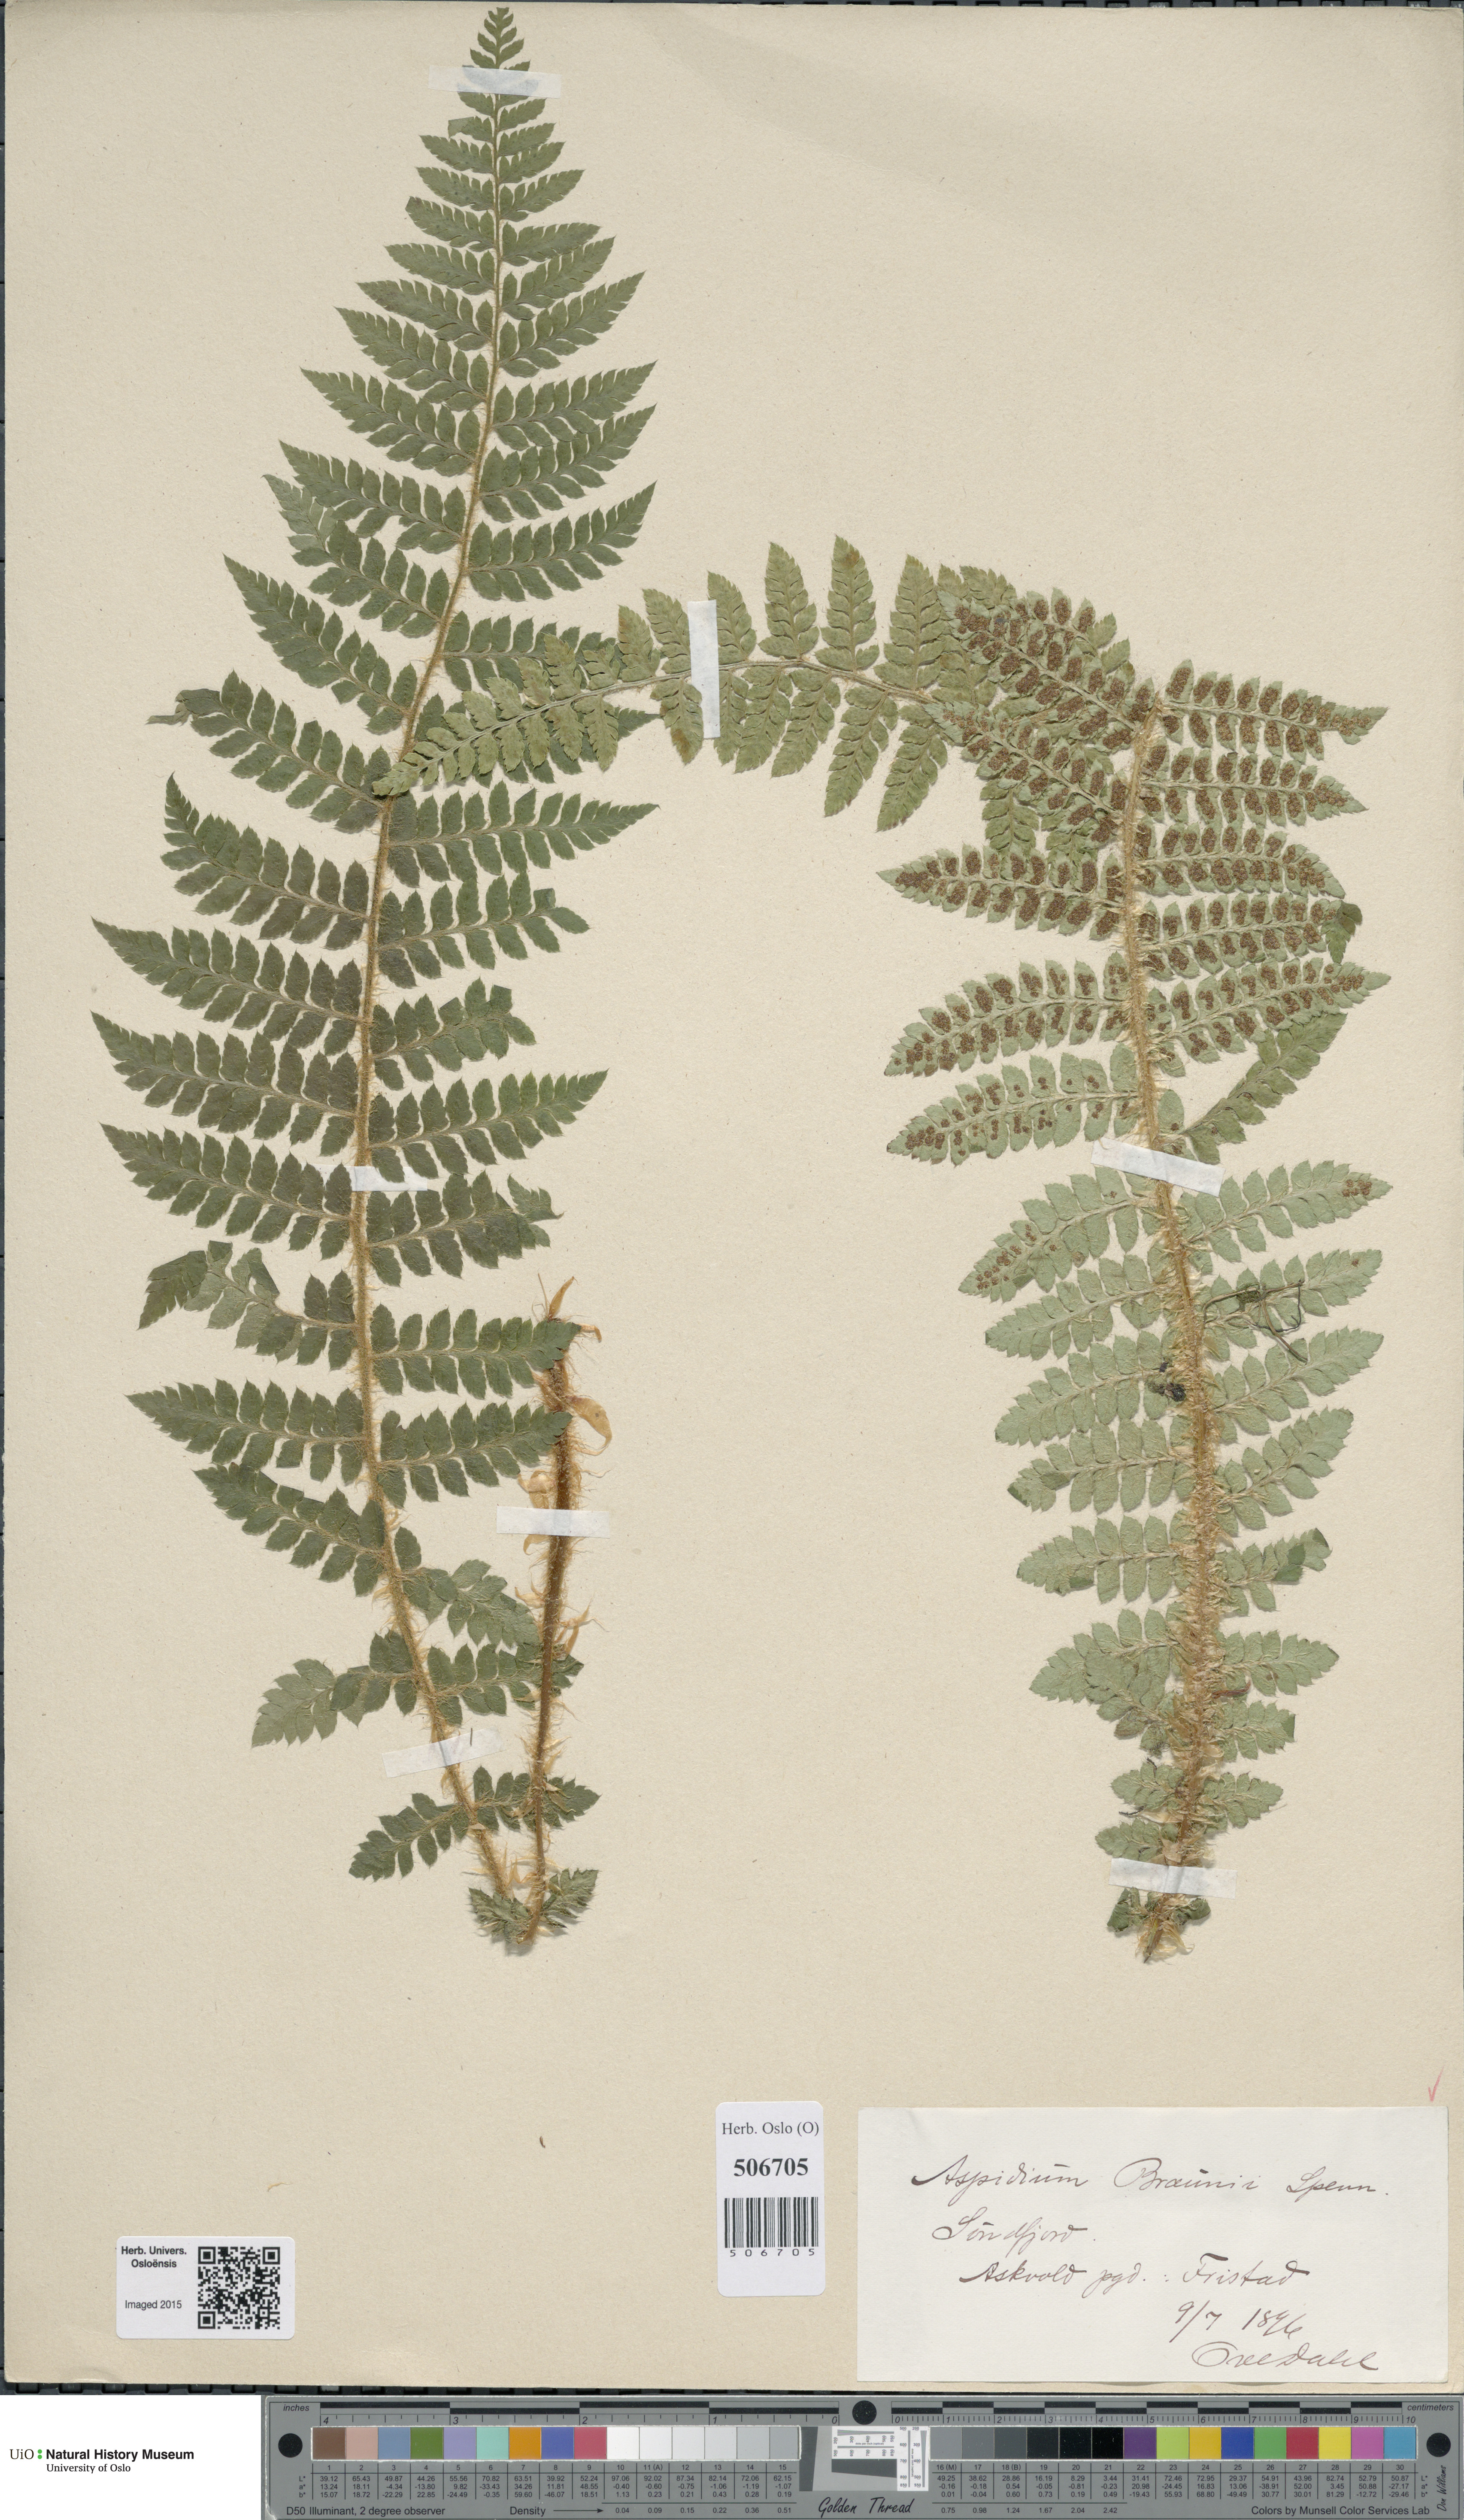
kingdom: Plantae
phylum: Tracheophyta
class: Polypodiopsida
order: Polypodiales
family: Dryopteridaceae
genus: Polystichum
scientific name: Polystichum braunii
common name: Braun's holly fern
